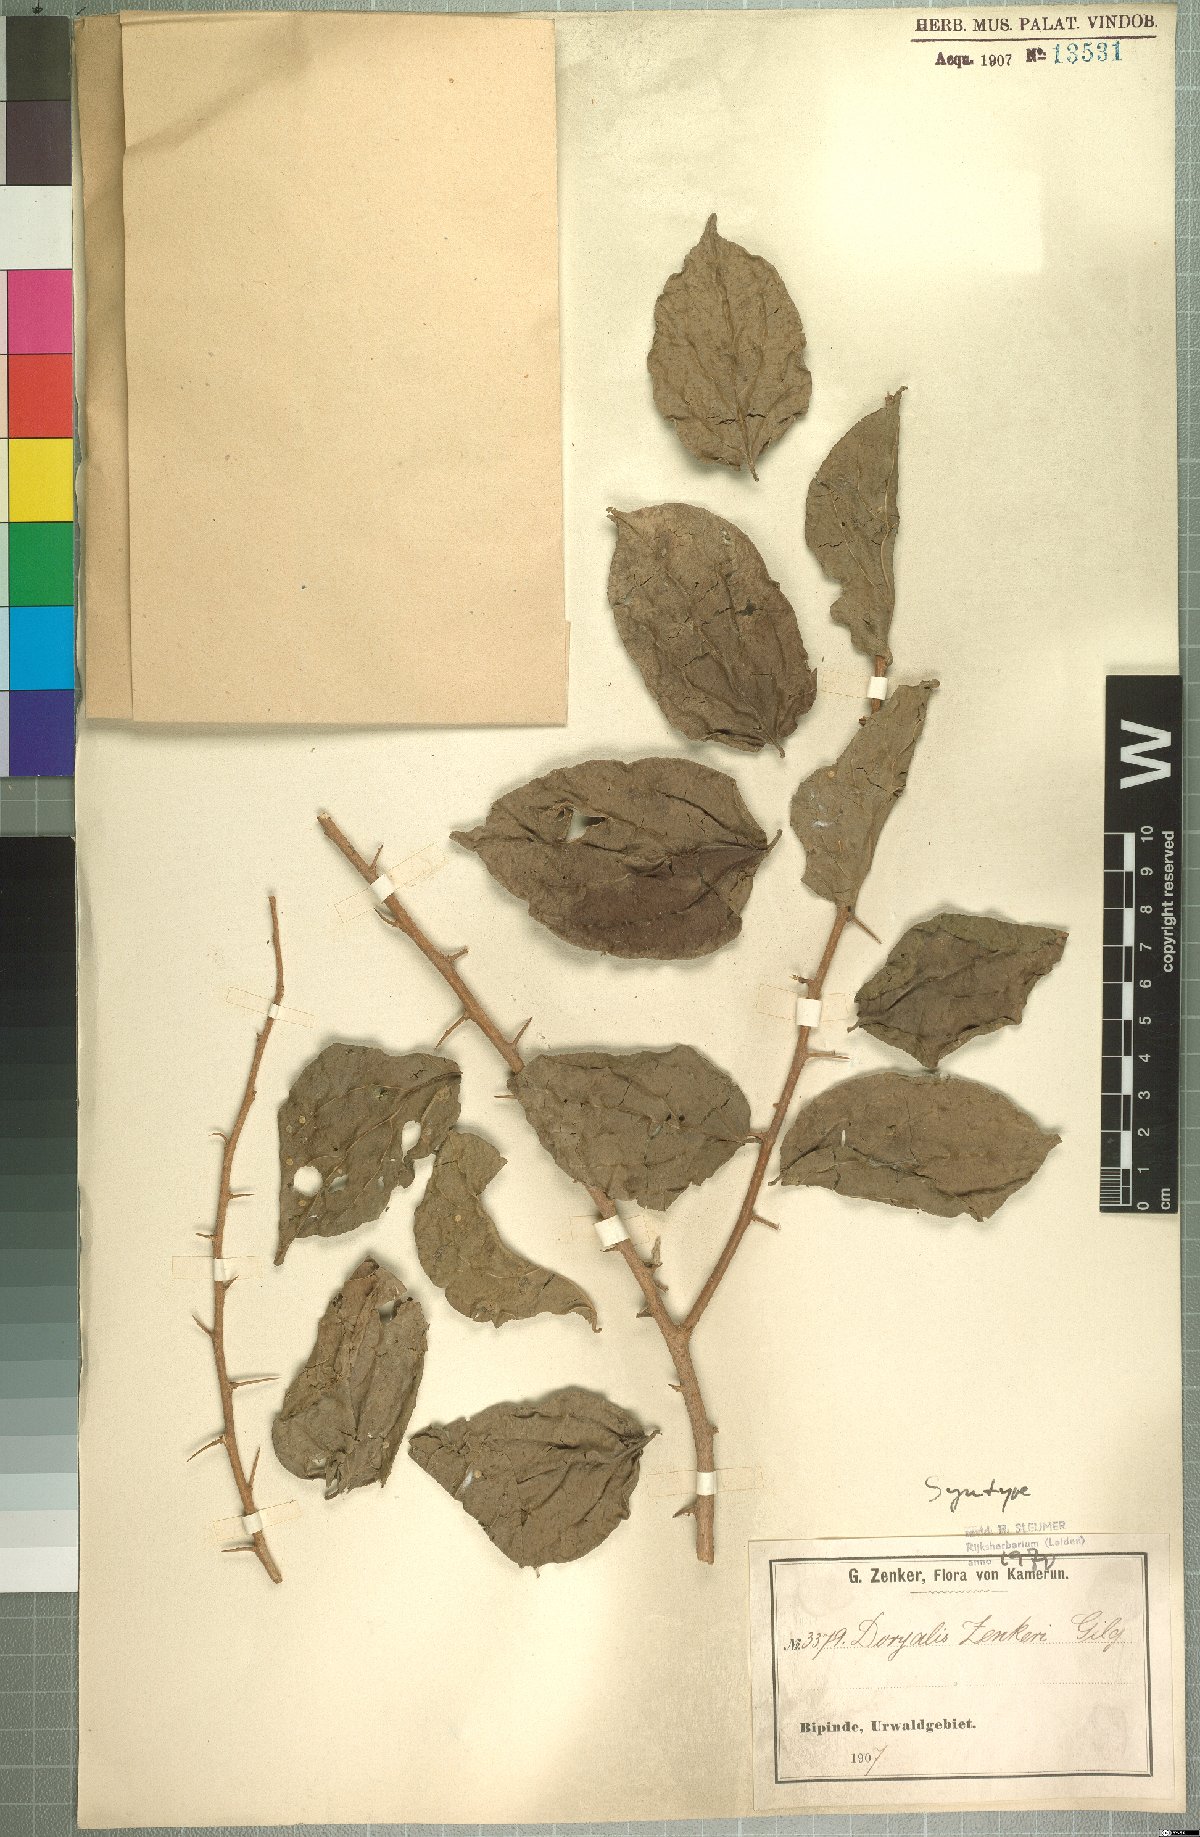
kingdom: Plantae
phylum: Tracheophyta
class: Magnoliopsida
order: Malpighiales
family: Salicaceae
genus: Dovyalis
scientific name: Dovyalis zenkeri
